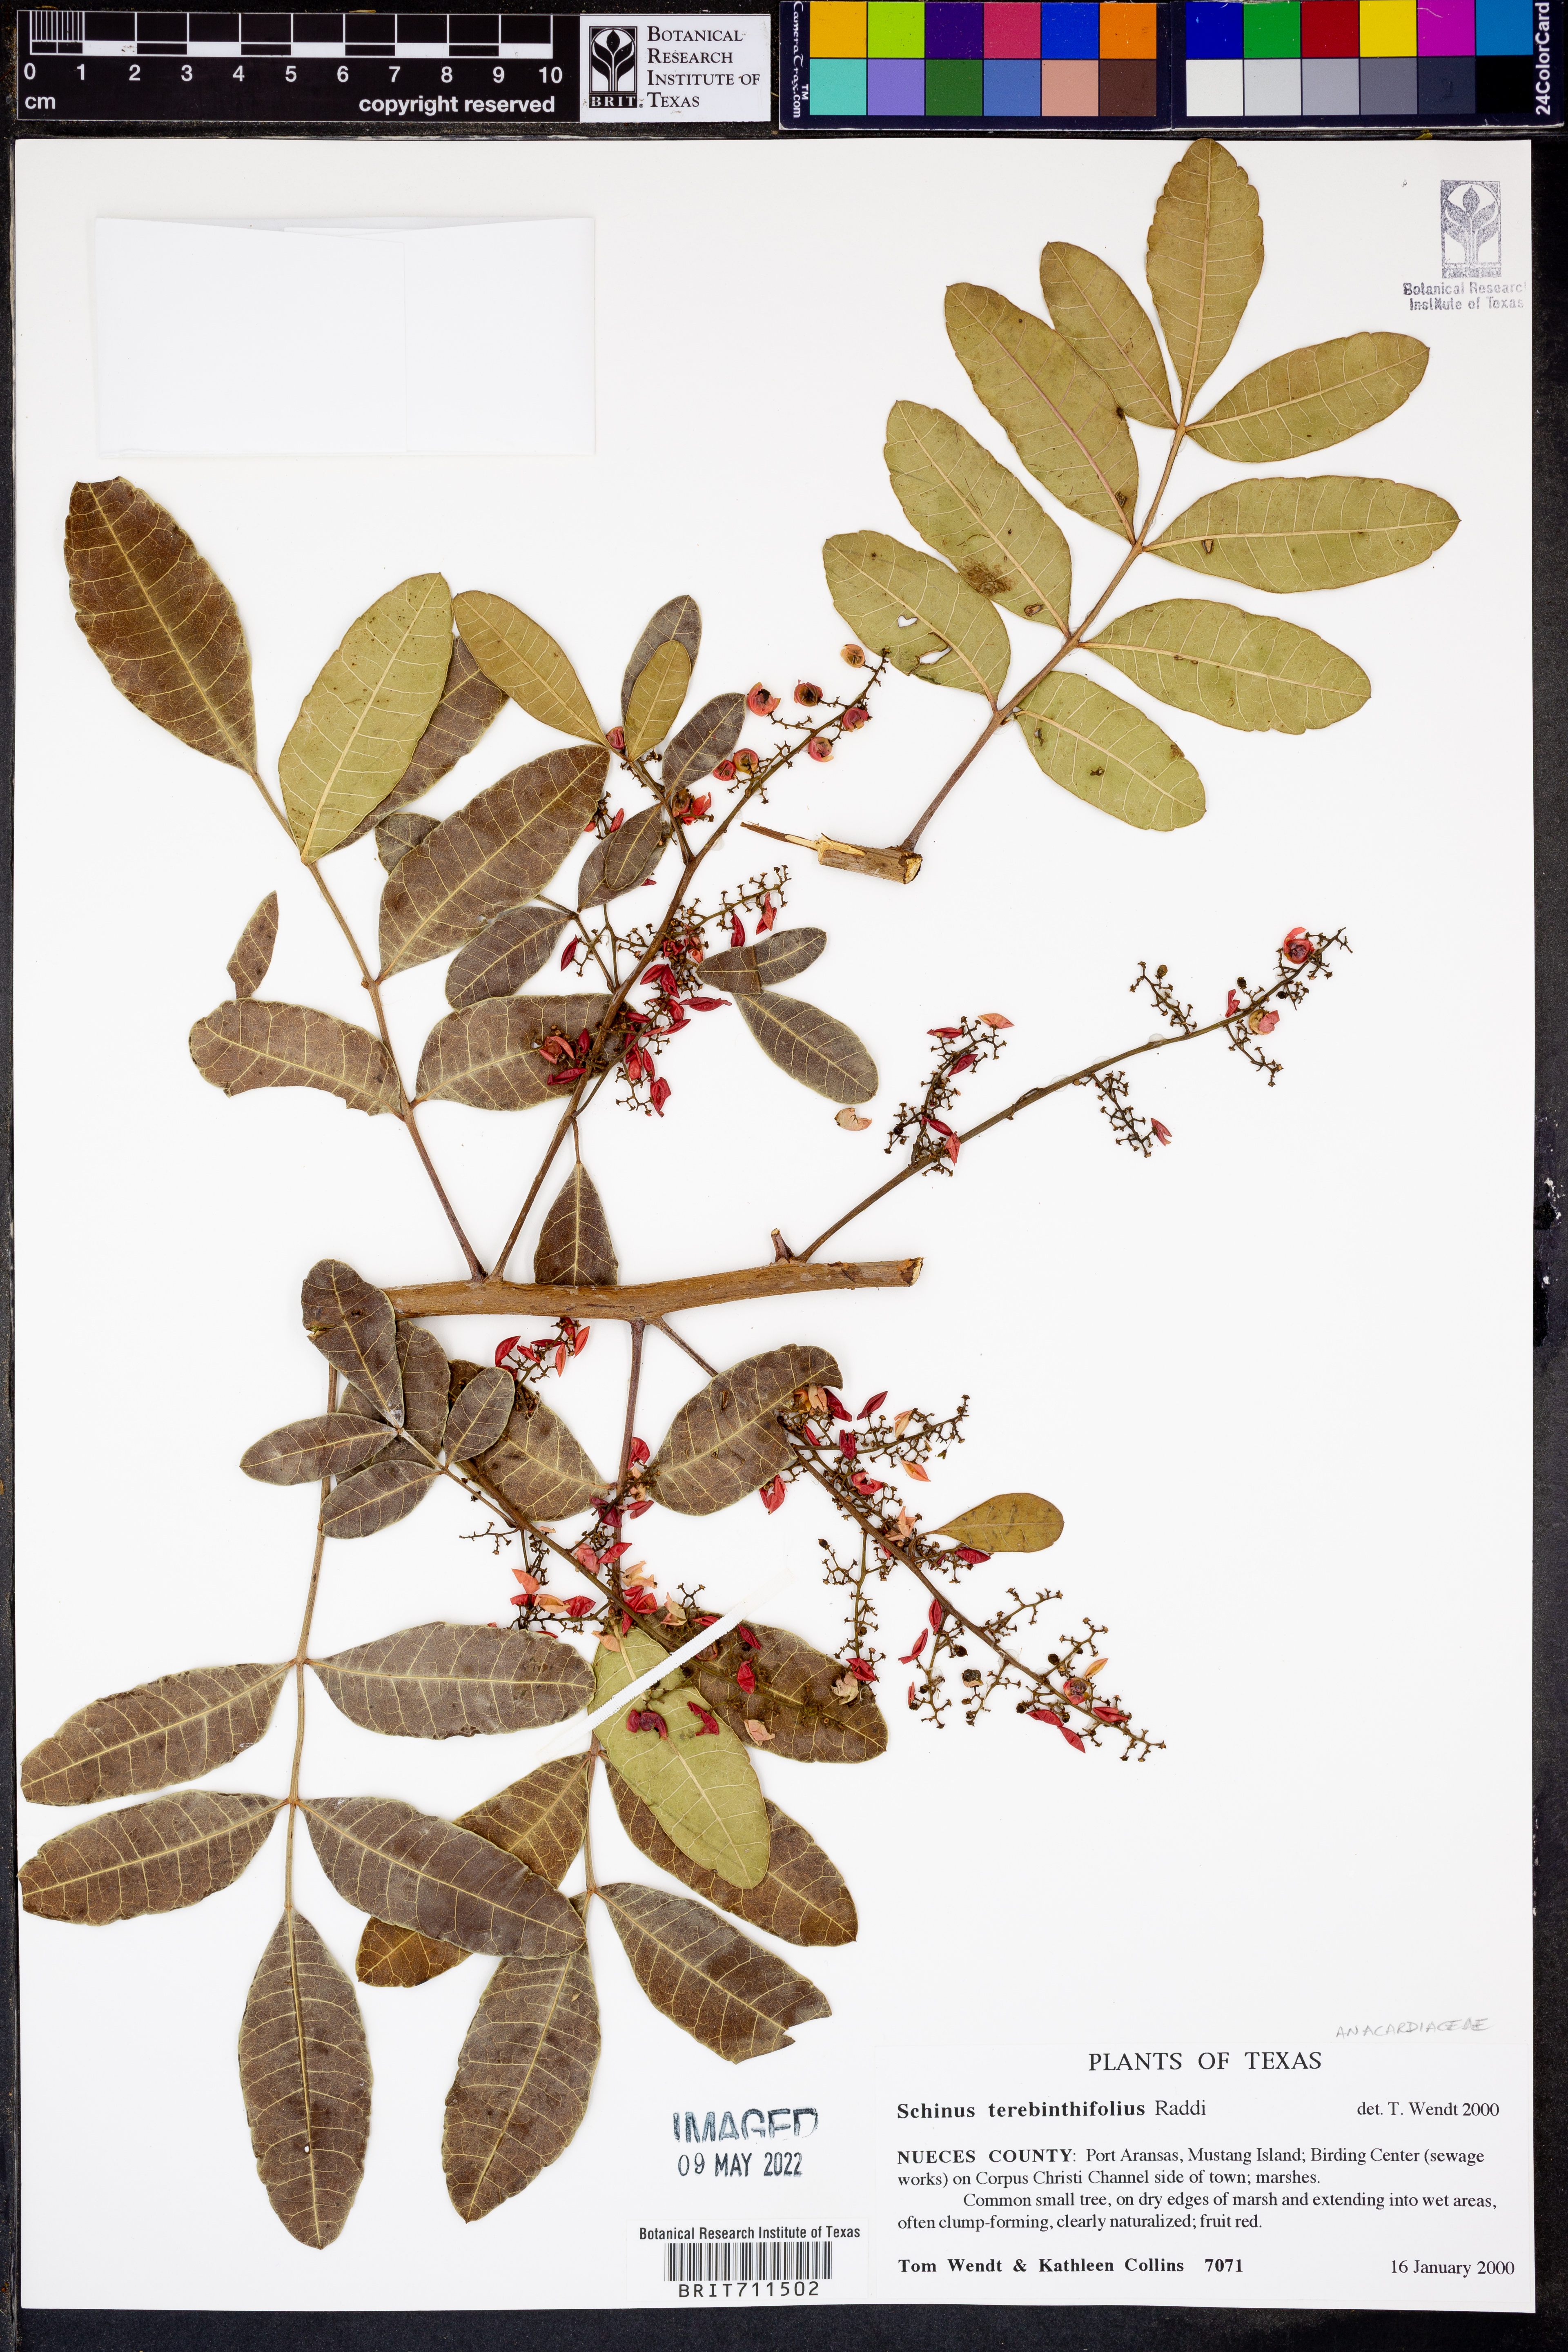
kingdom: Plantae
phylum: Tracheophyta
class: Magnoliopsida
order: Sapindales
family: Anacardiaceae
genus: Schinus
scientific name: Schinus terebinthifolia
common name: Brazilian peppertree
